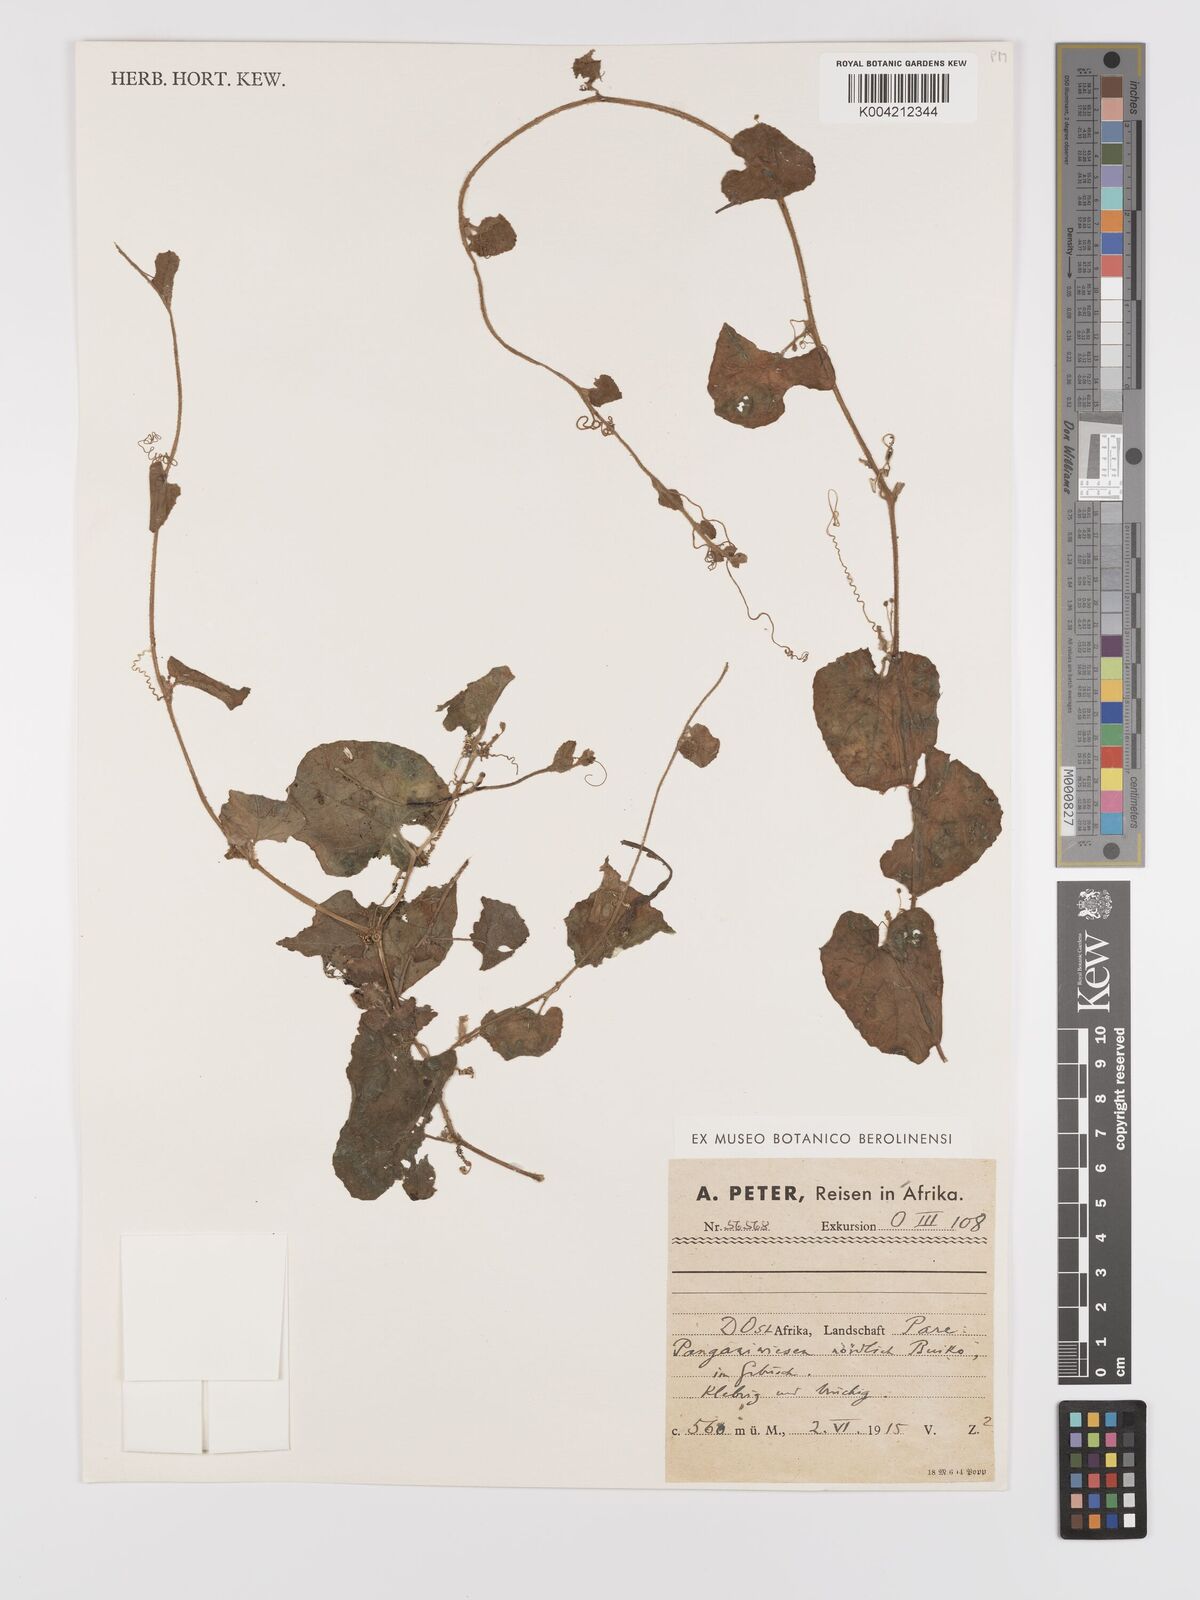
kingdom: Plantae
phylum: Tracheophyta
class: Magnoliopsida
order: Cucurbitales
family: Cucurbitaceae
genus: Kedrostis
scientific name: Kedrostis foetidissima
